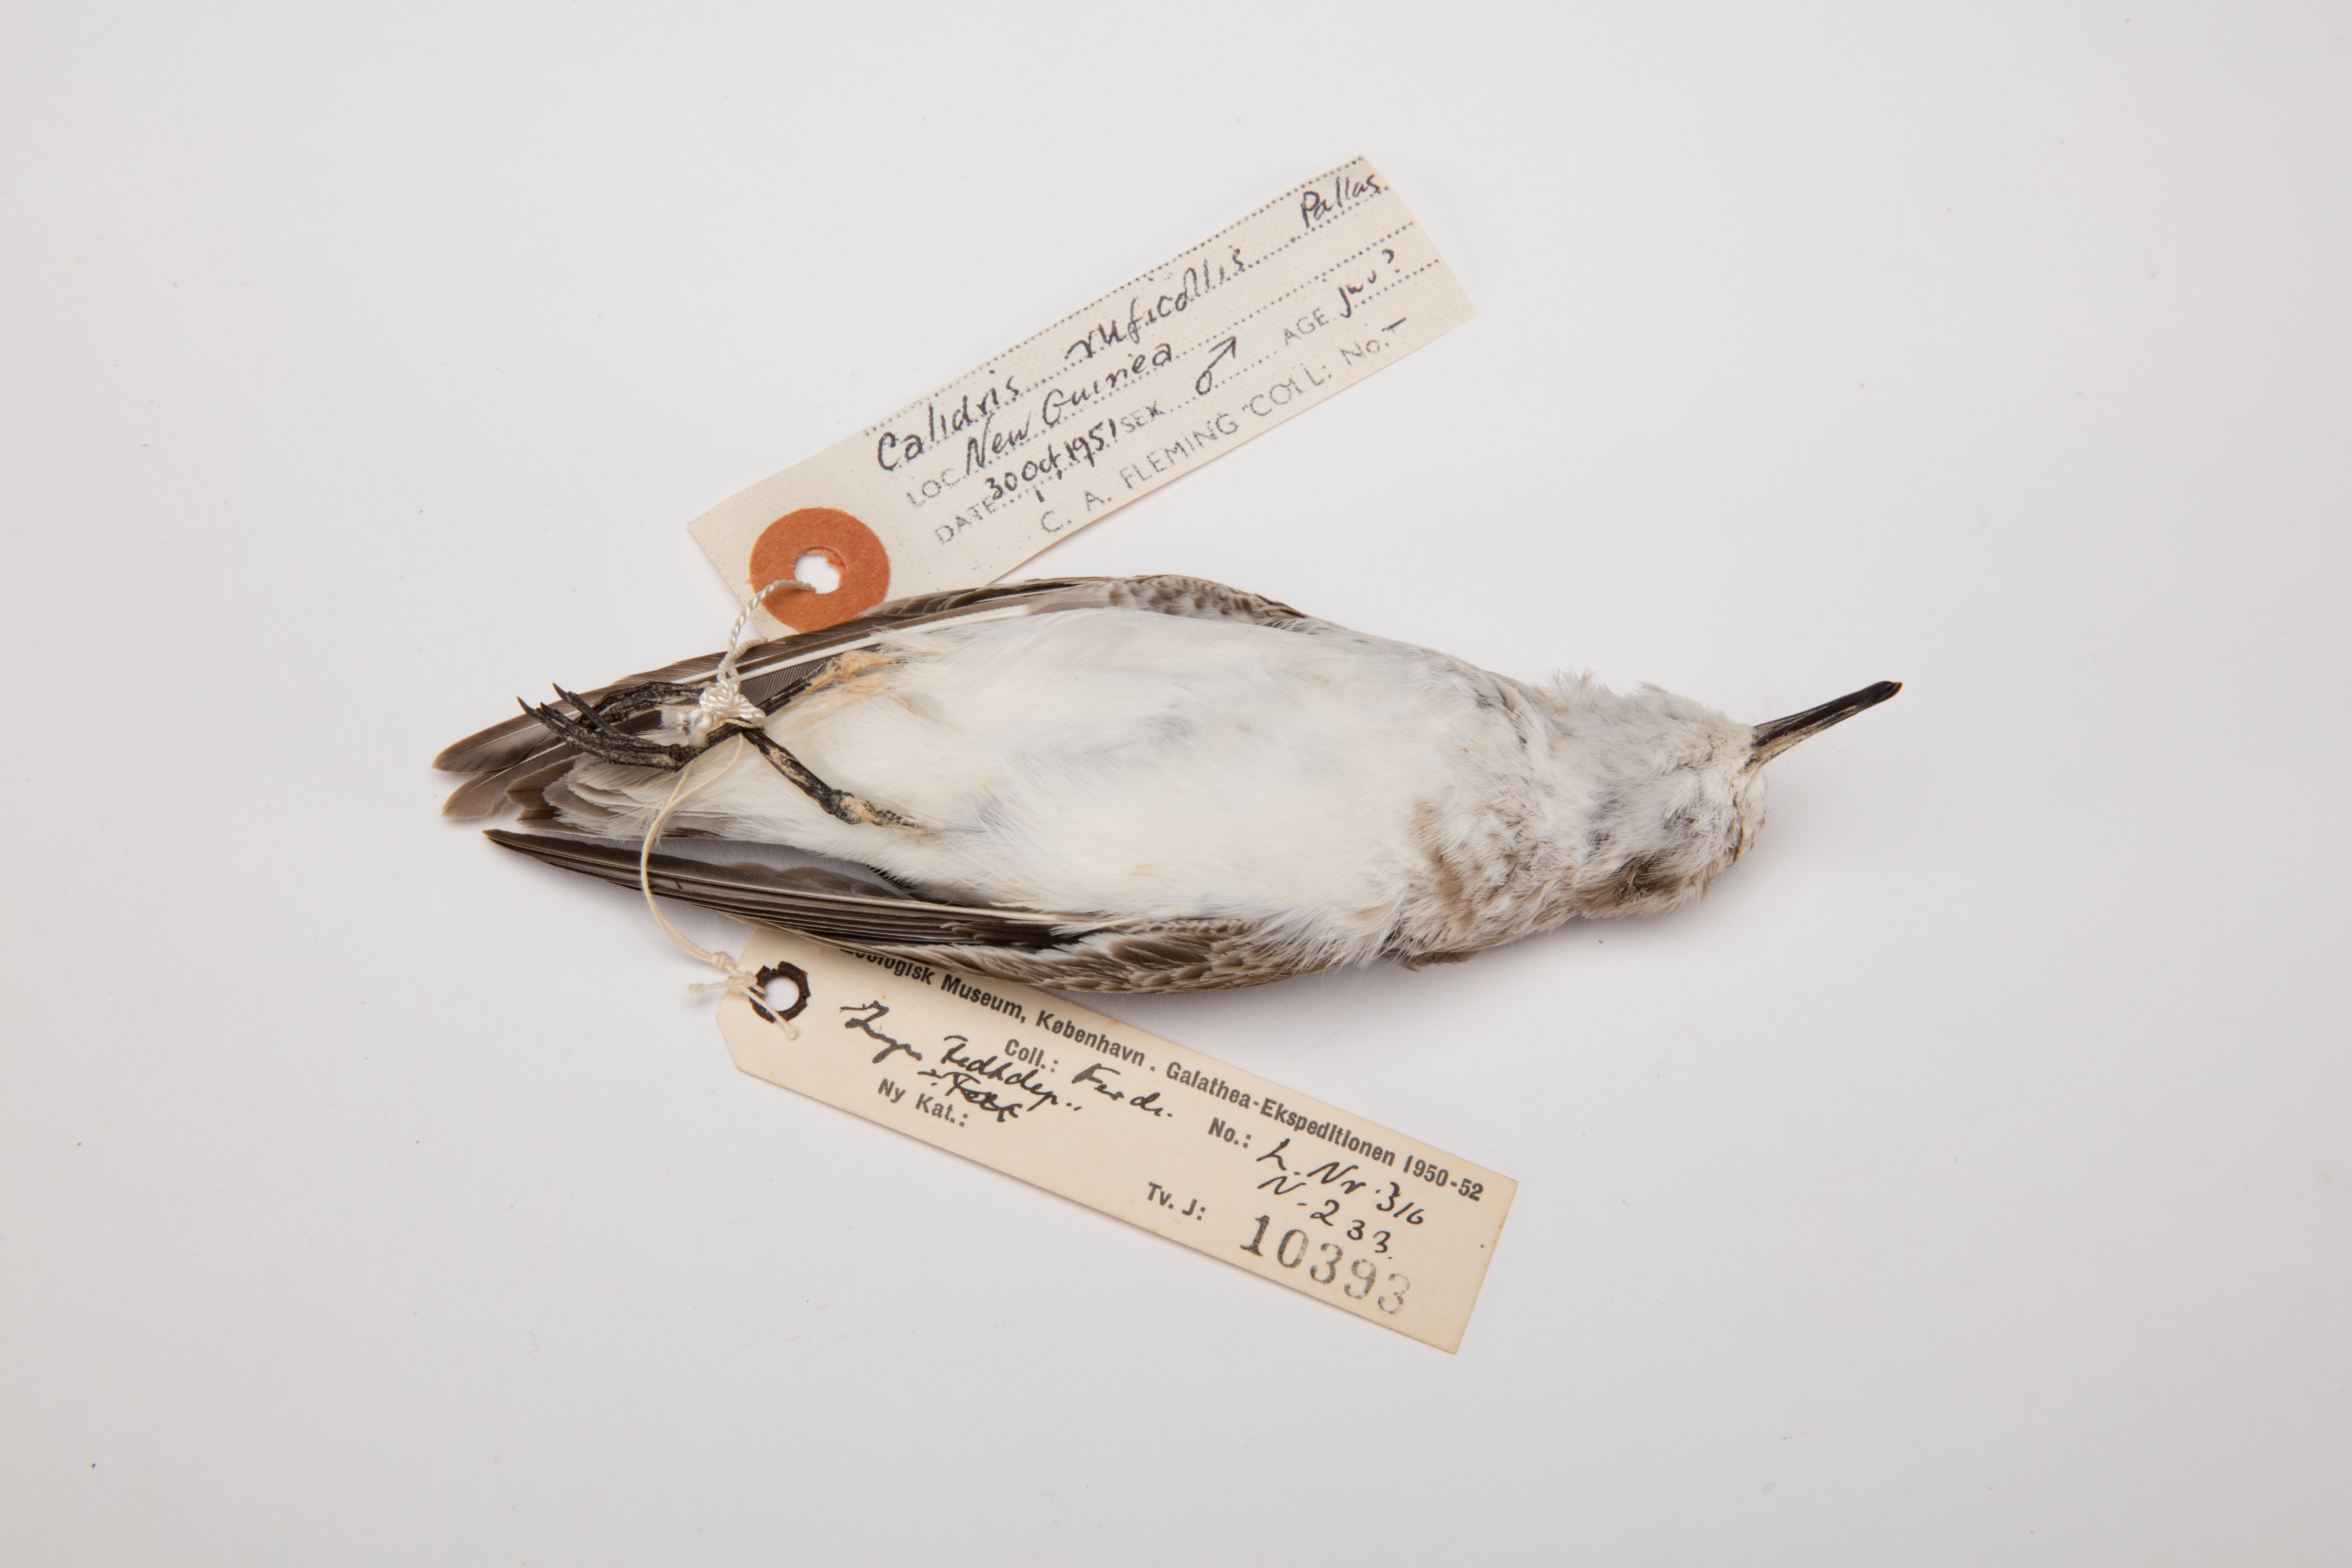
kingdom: Animalia
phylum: Chordata
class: Aves
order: Charadriiformes
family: Scolopacidae
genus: Calidris
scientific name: Calidris ruficollis
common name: Red-necked stint
